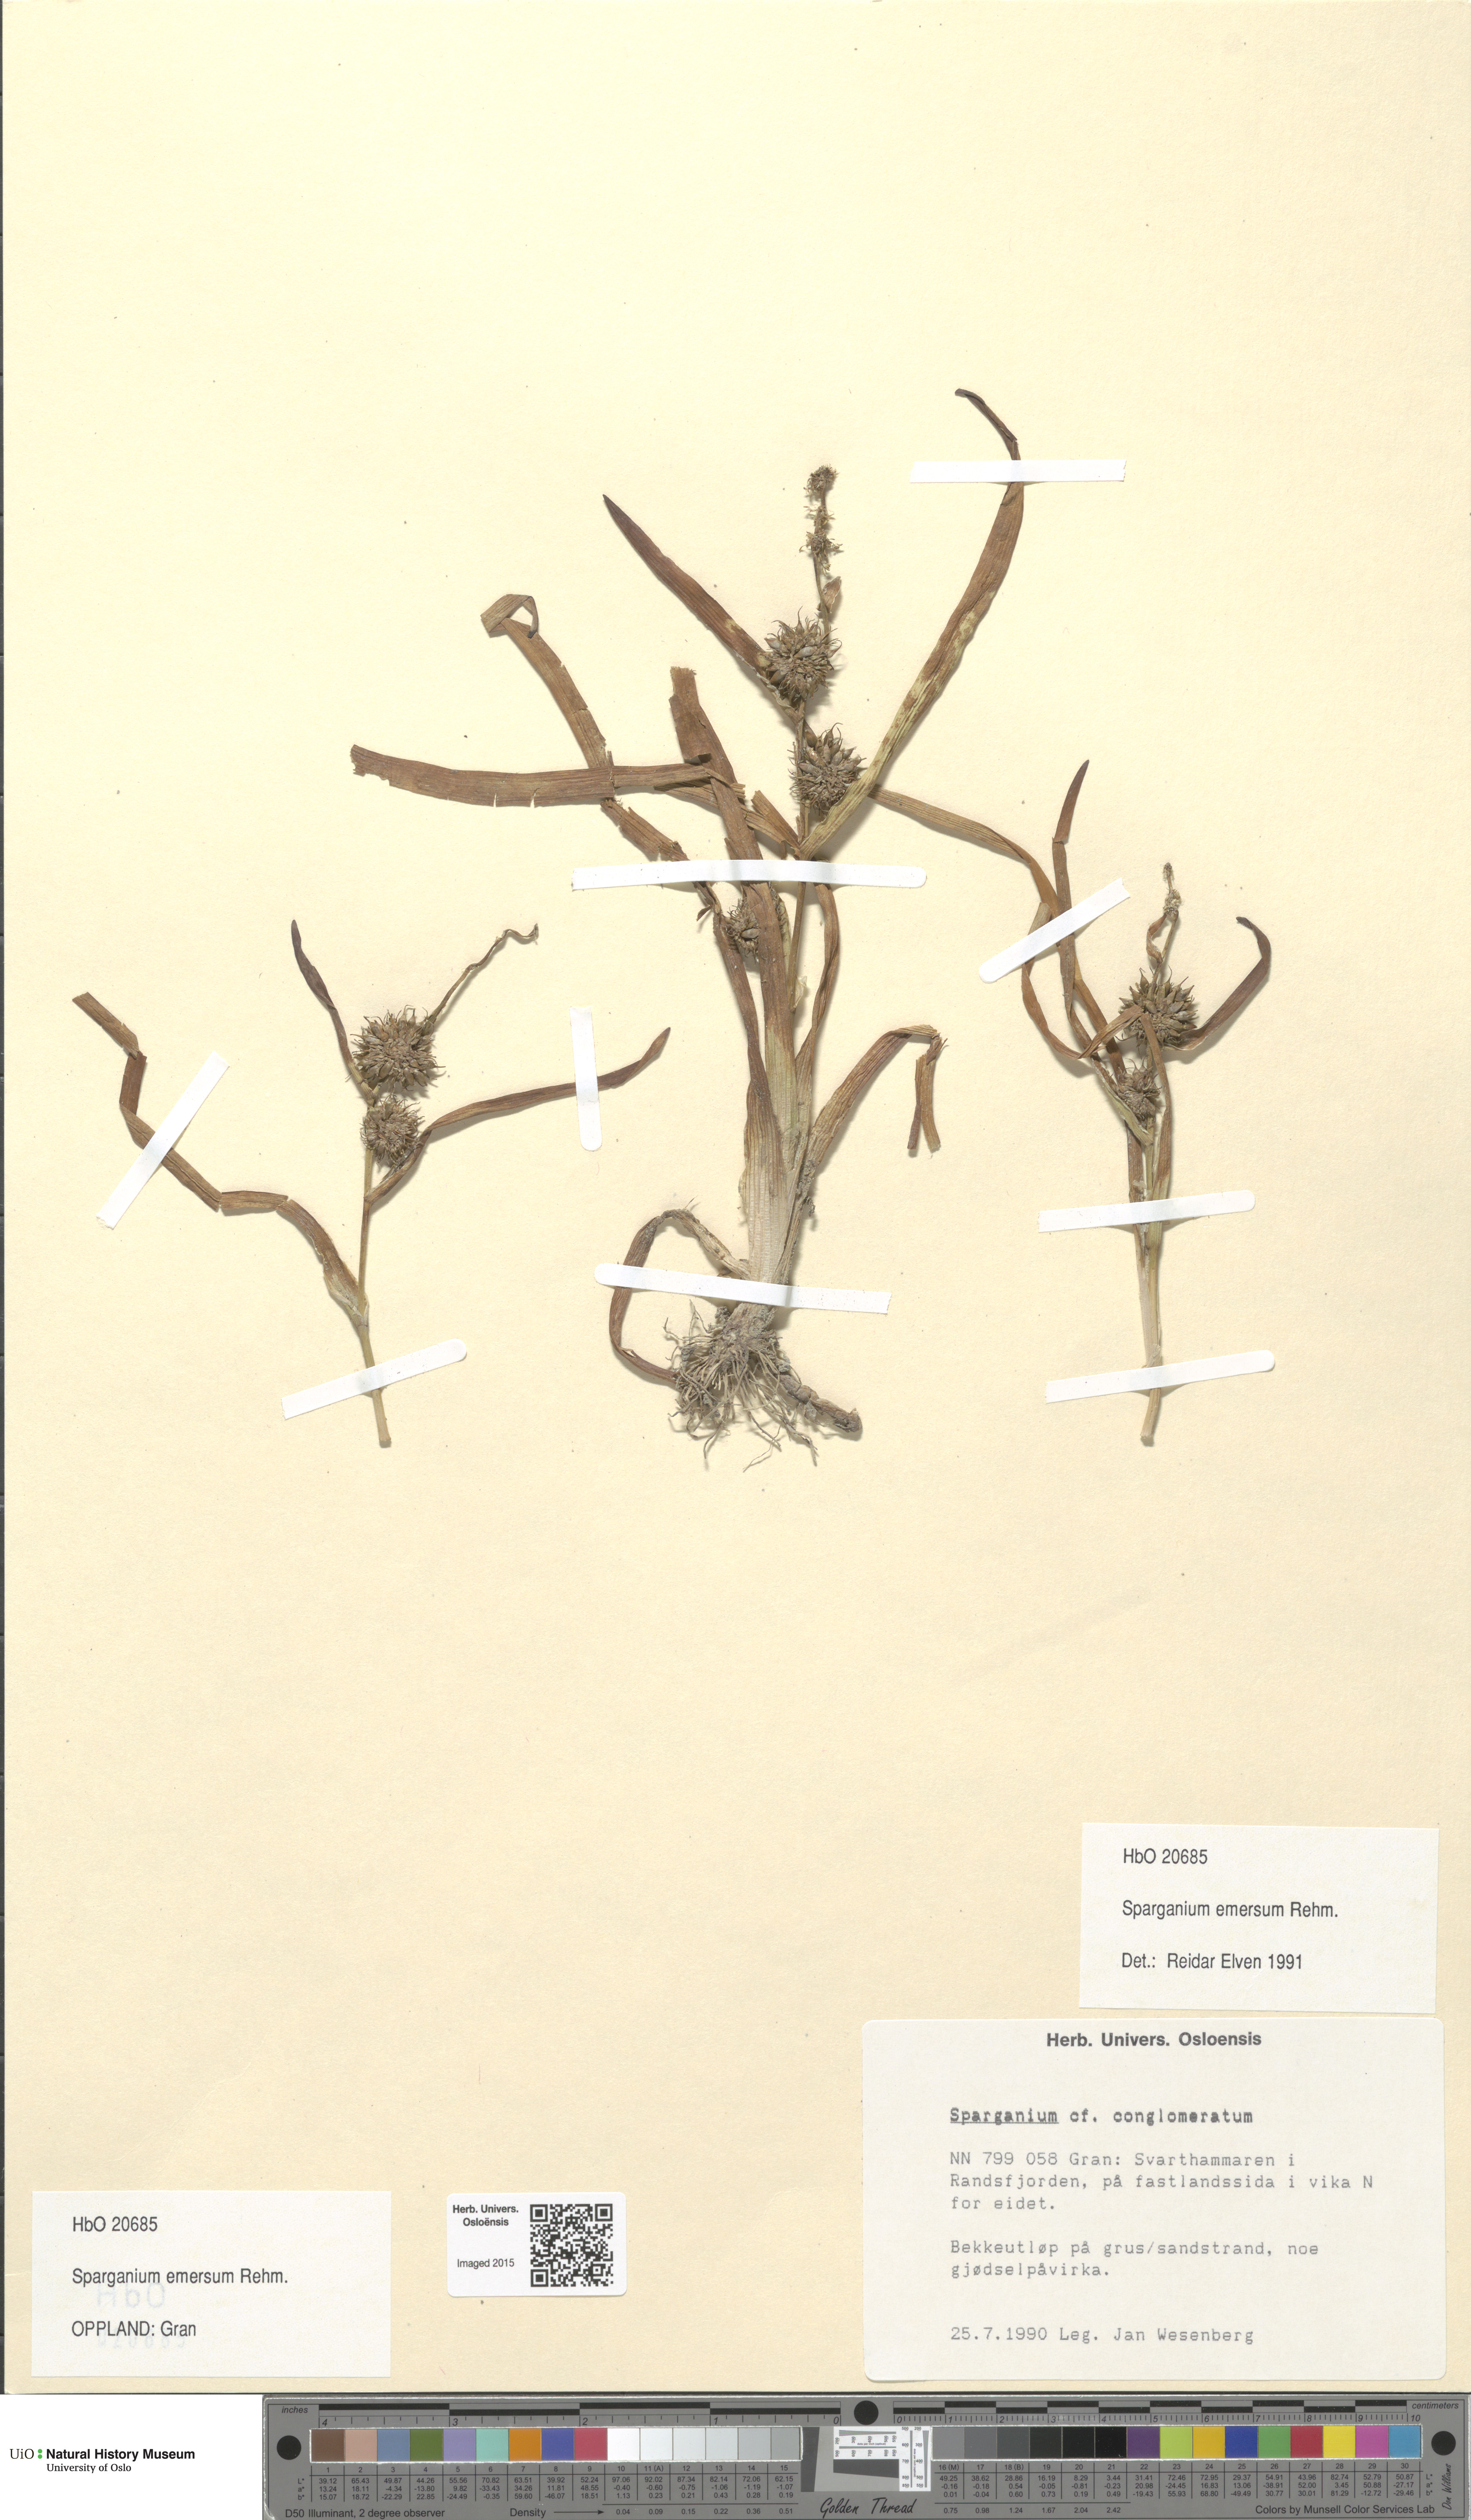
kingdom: Plantae
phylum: Tracheophyta
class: Liliopsida
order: Poales
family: Typhaceae
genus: Sparganium
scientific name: Sparganium emersum
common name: Unbranched bur-reed
